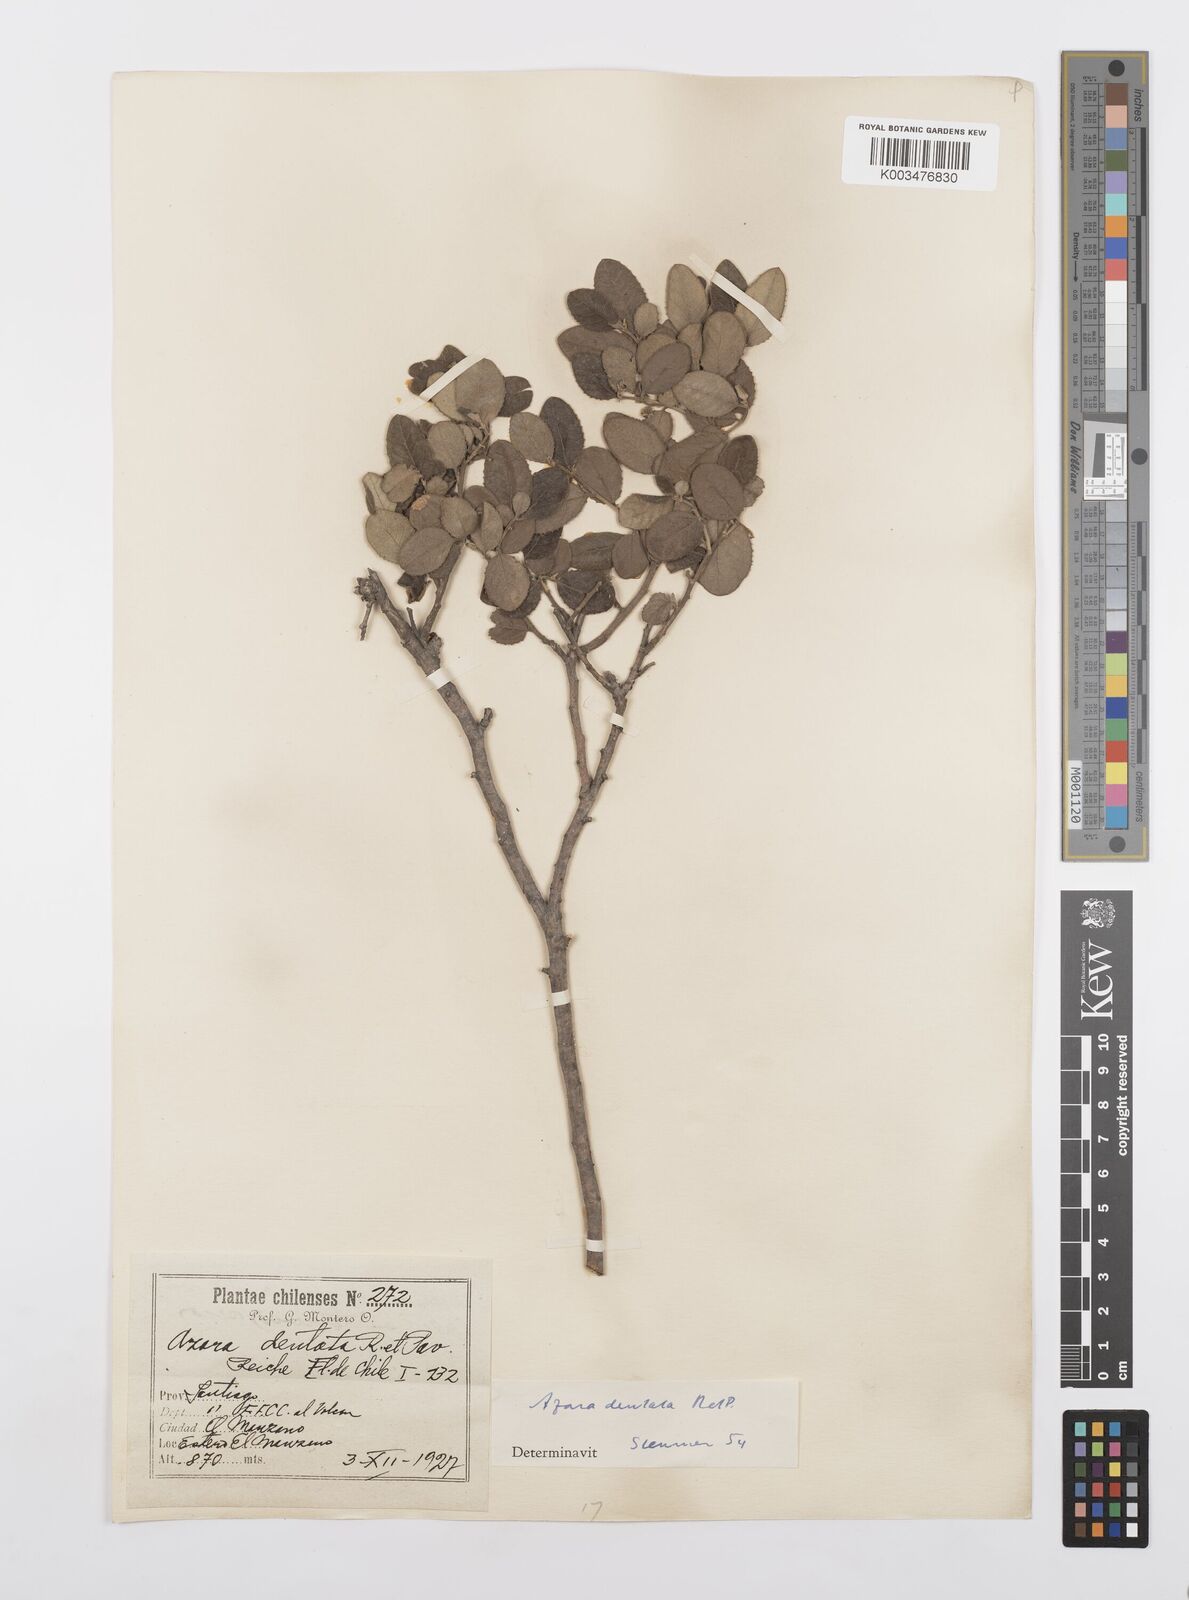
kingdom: Plantae
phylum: Tracheophyta
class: Magnoliopsida
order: Malpighiales
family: Salicaceae
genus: Azara
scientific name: Azara dentata
